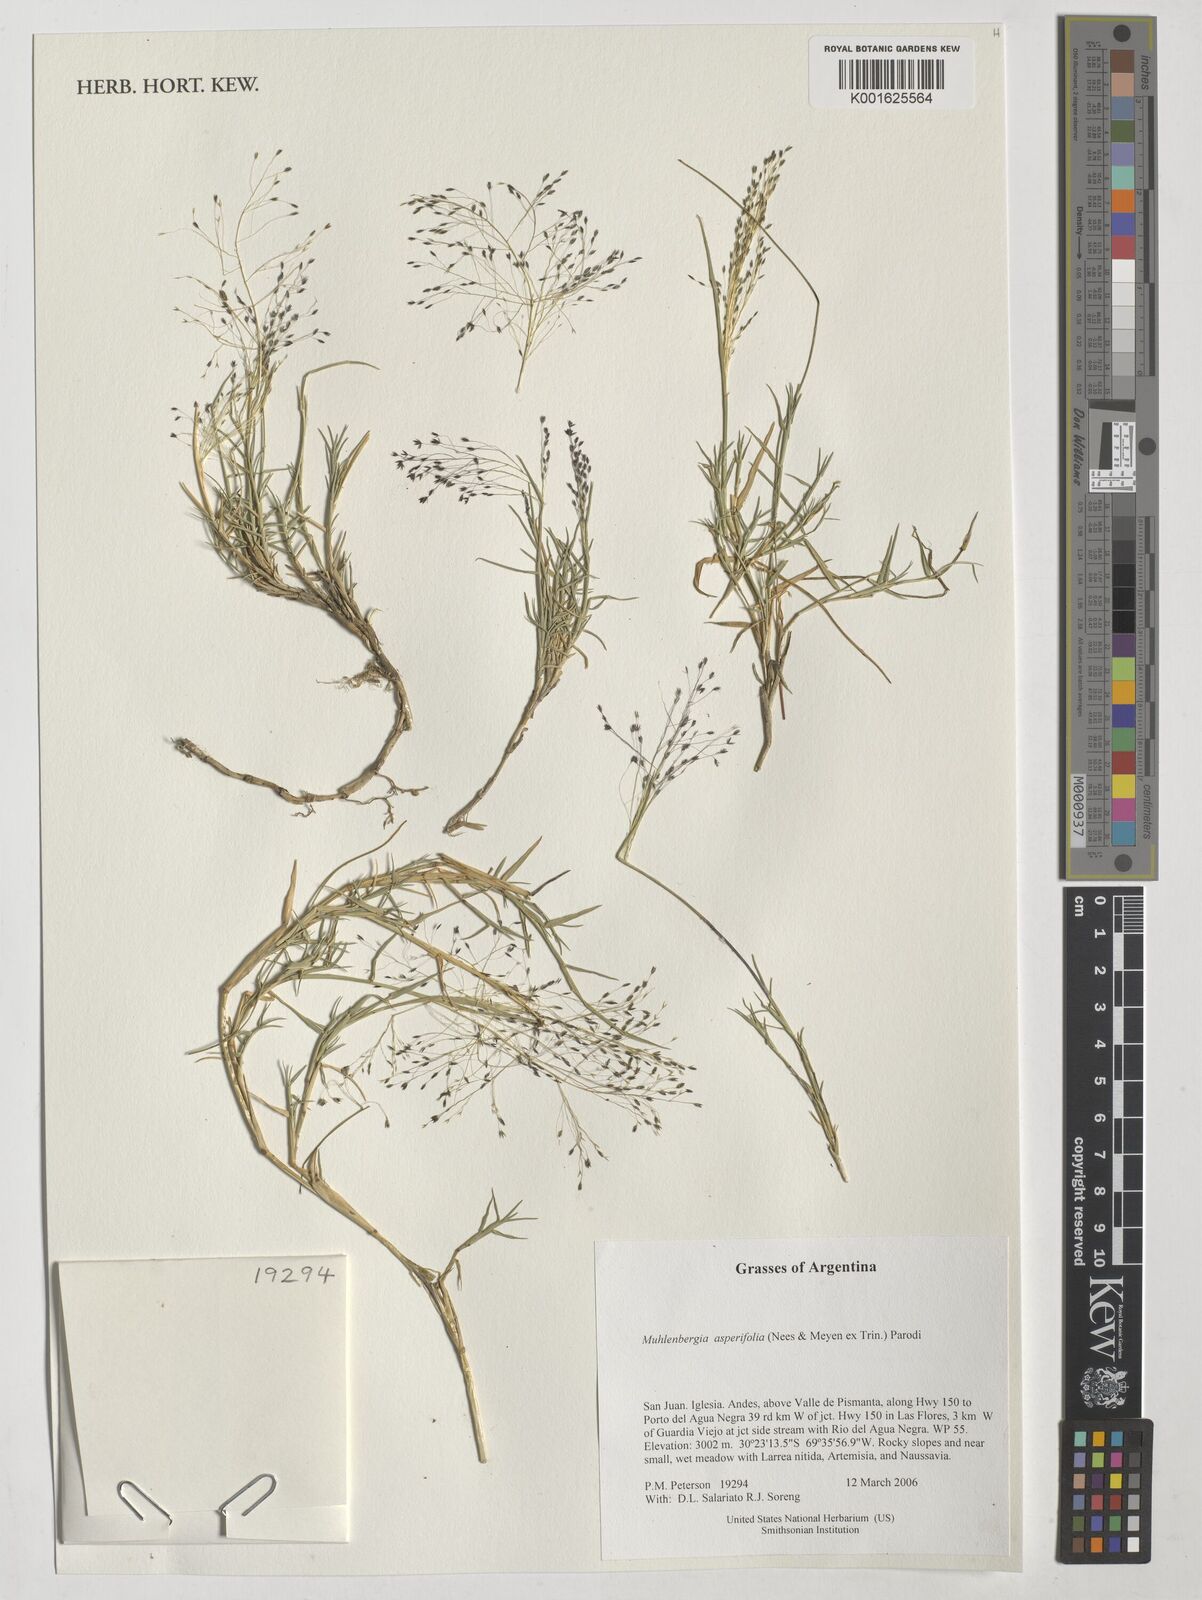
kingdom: Plantae
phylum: Tracheophyta
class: Liliopsida
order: Poales
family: Poaceae
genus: Muhlenbergia
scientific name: Muhlenbergia asperifolia
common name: Alkali muhly
